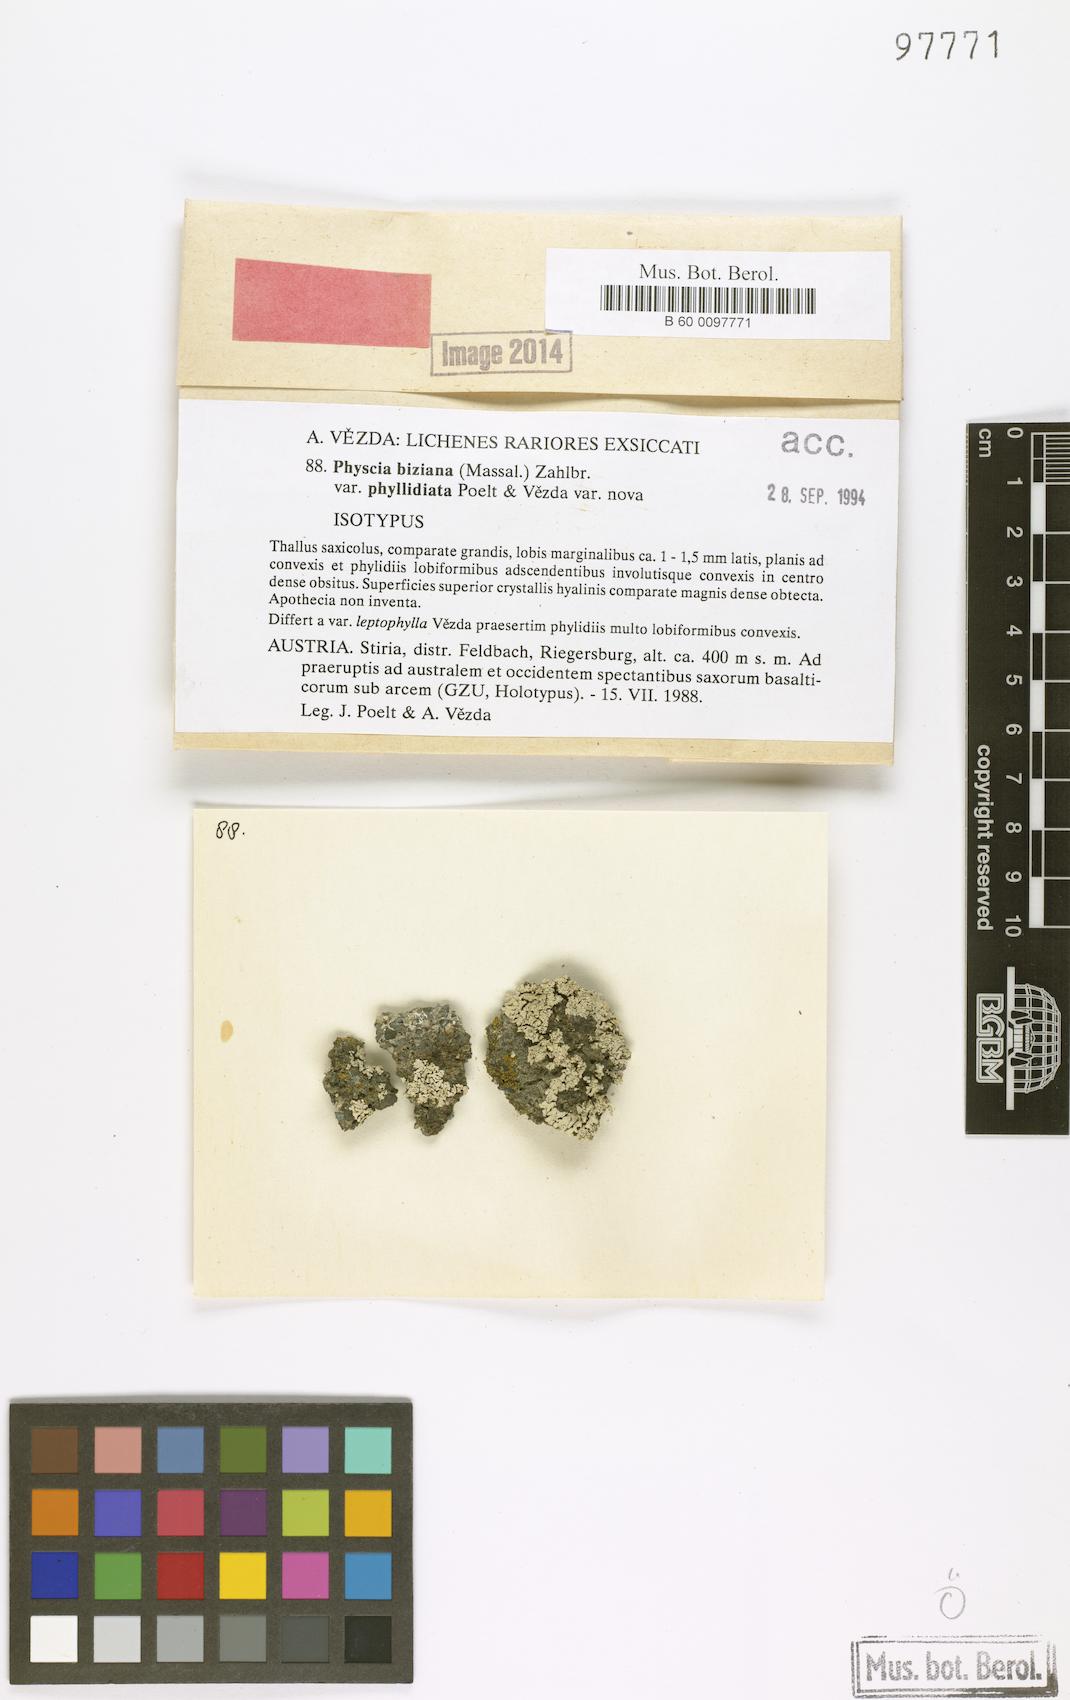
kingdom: Fungi
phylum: Ascomycota
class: Lecanoromycetes
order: Caliciales
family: Physciaceae
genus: Physcia
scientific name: Physcia biziana
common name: Frosted rosette lichen
